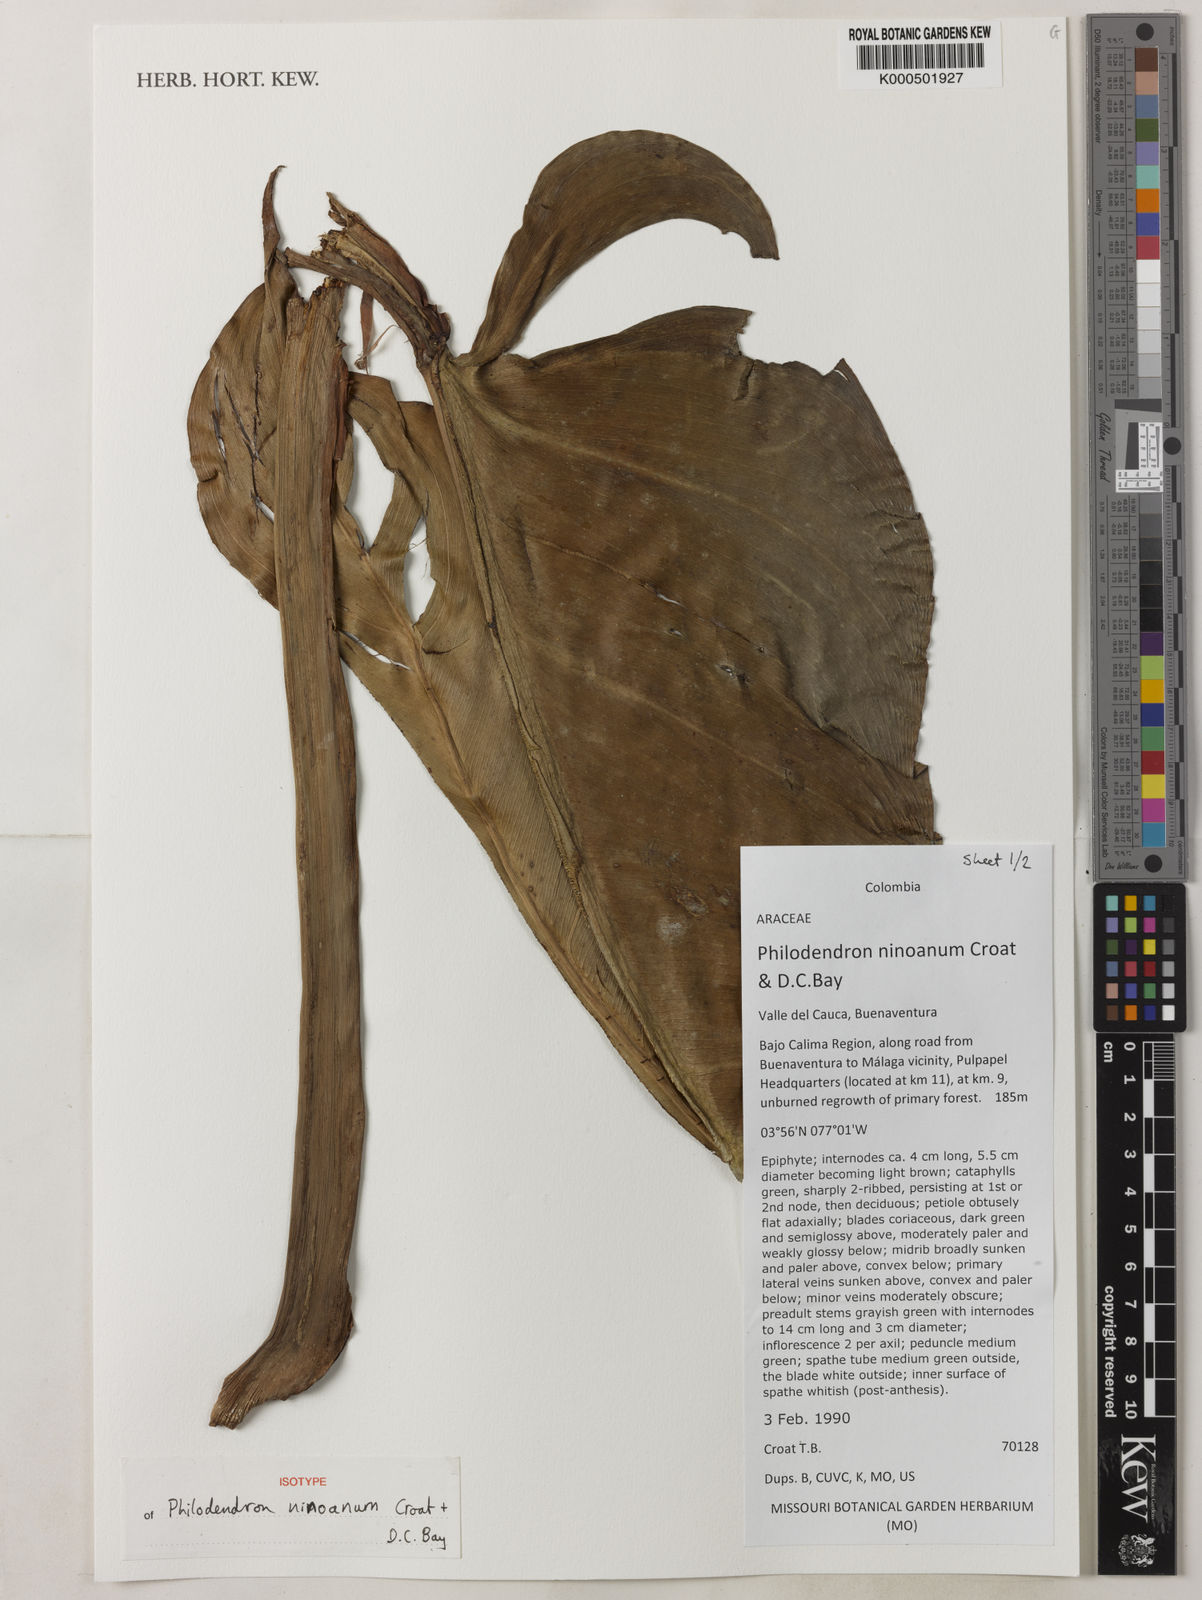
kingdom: Plantae
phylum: Tracheophyta
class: Liliopsida
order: Alismatales
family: Araceae
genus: Philodendron
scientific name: Philodendron ninoanum
